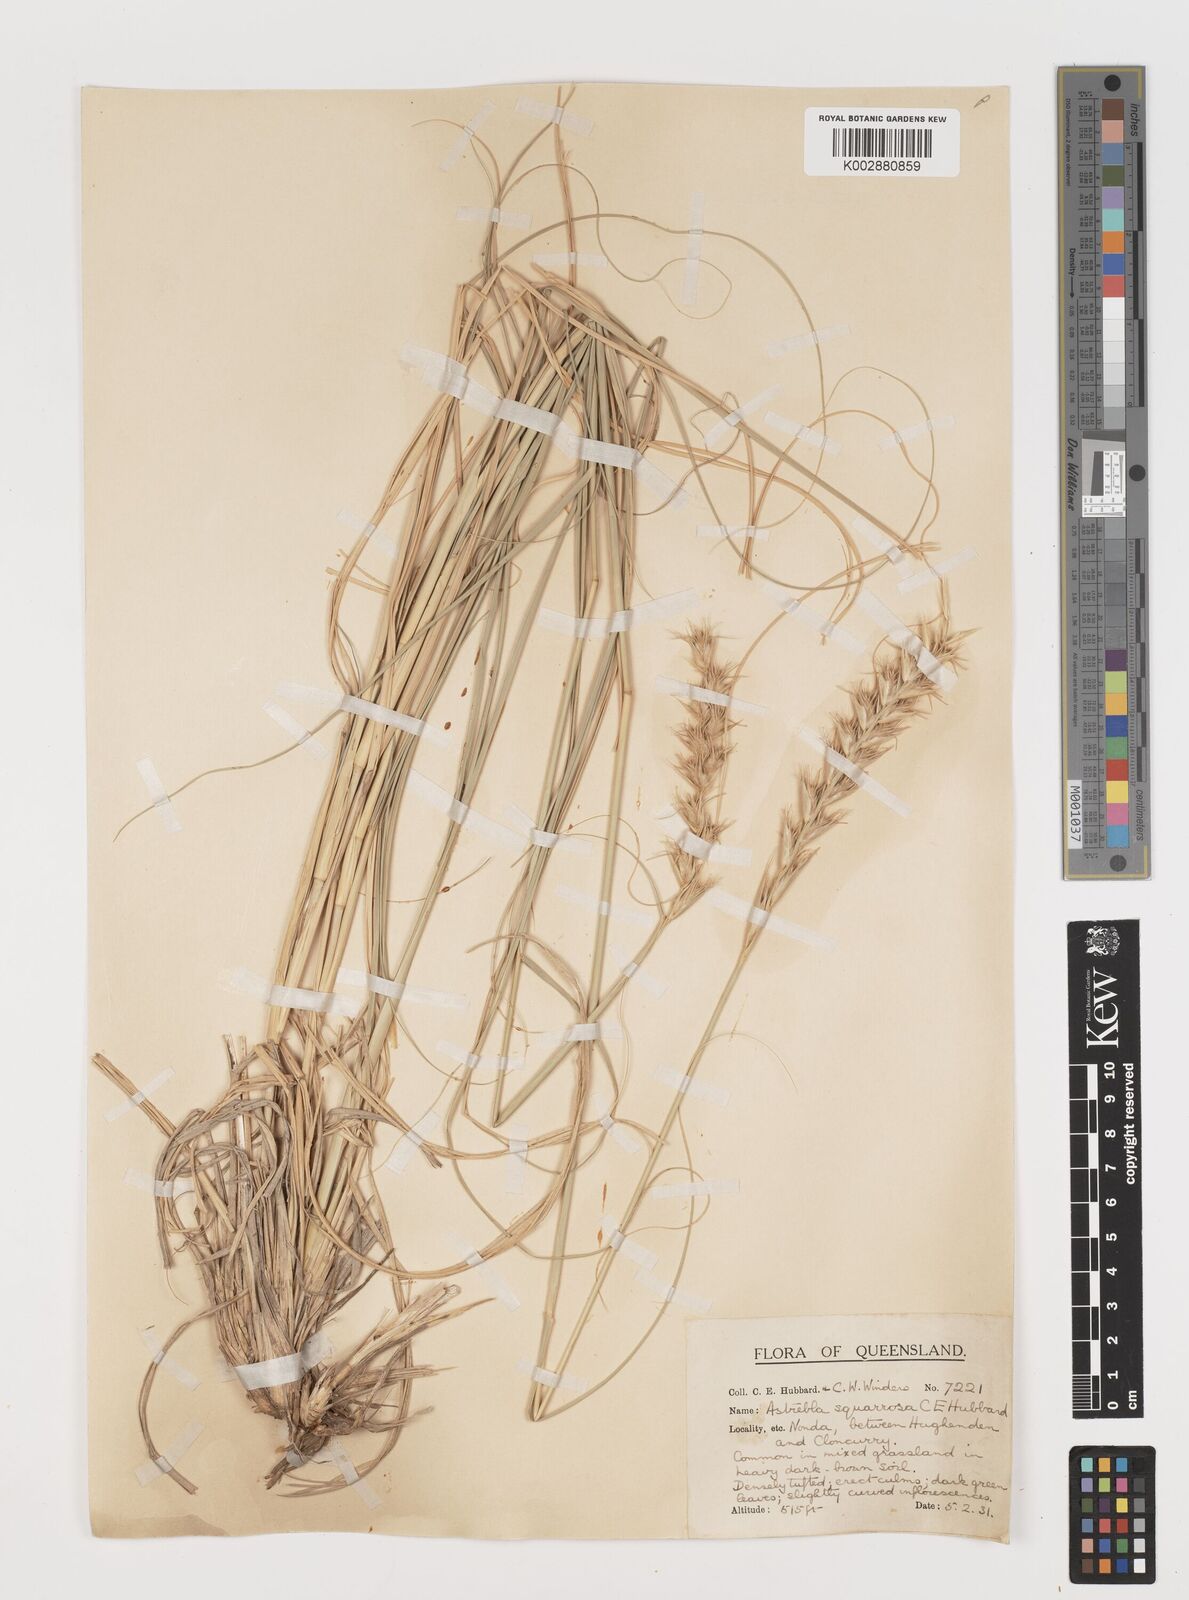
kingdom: Plantae
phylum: Tracheophyta
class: Liliopsida
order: Poales
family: Poaceae
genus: Astrebla
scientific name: Astrebla squarrosa
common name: Wheat-ear mitchell grass
